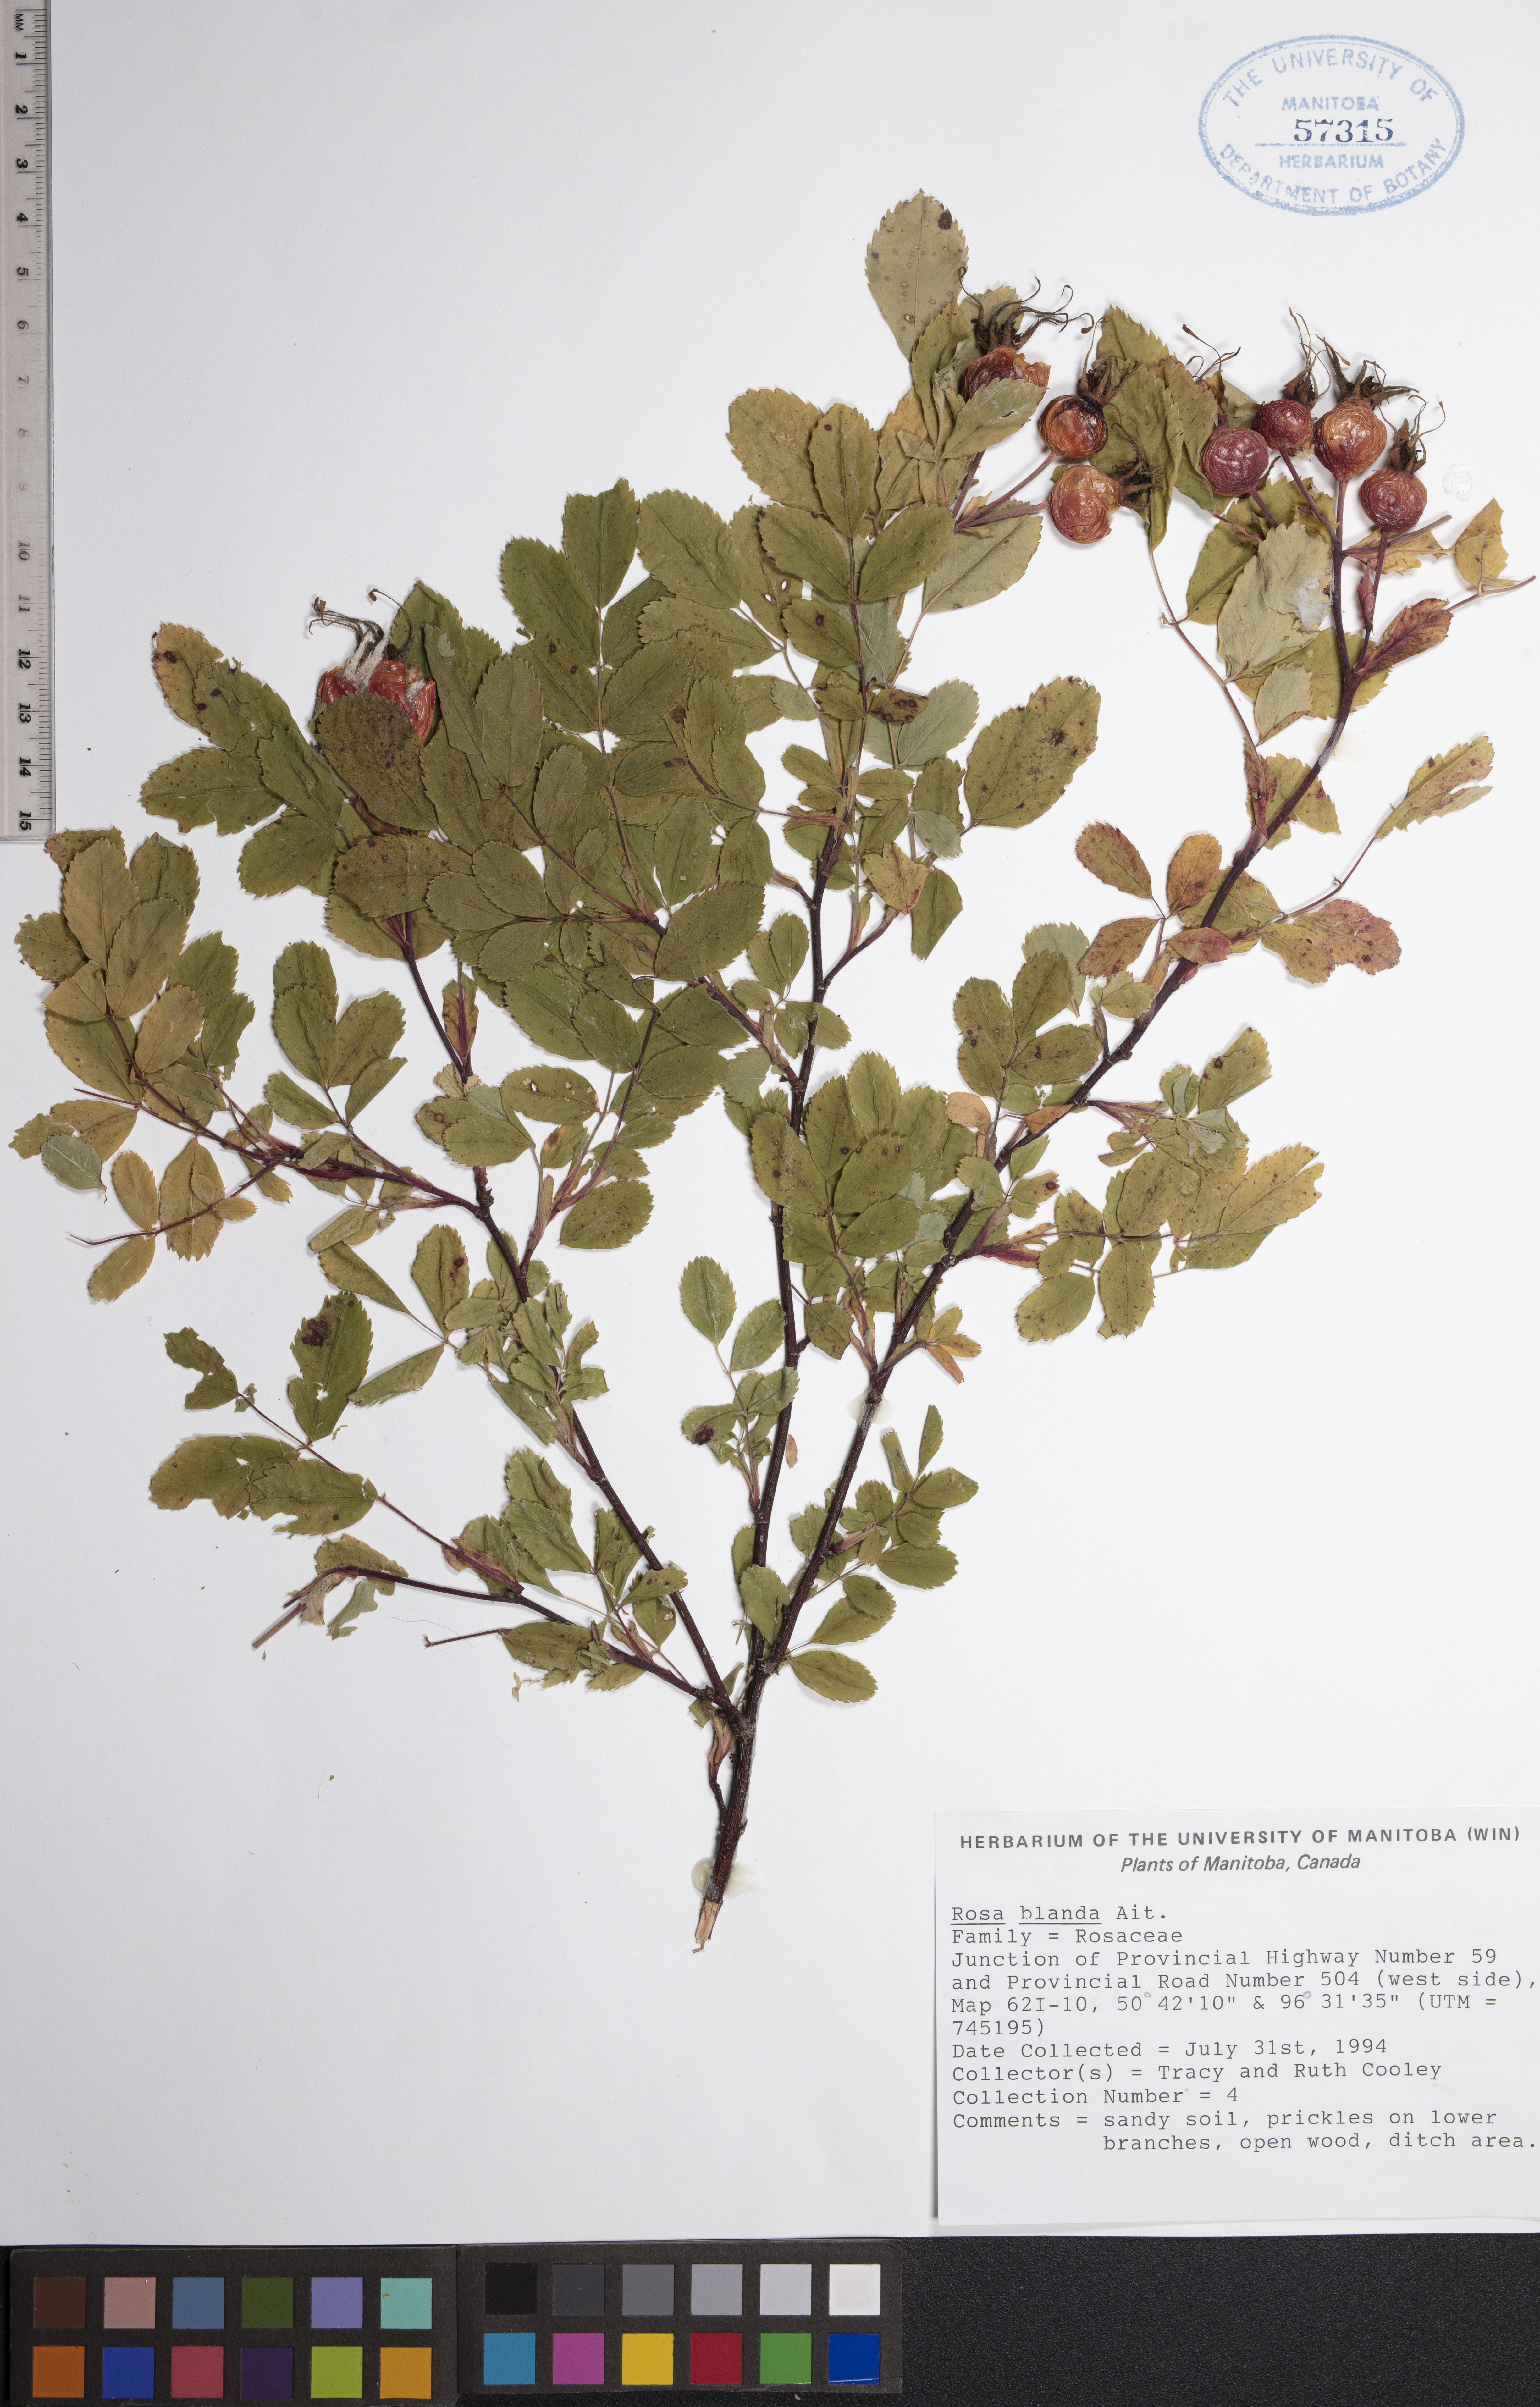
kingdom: Plantae
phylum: Tracheophyta
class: Magnoliopsida
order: Rosales
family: Rosaceae
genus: Rosa
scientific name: Rosa blanda
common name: Smooth rose
